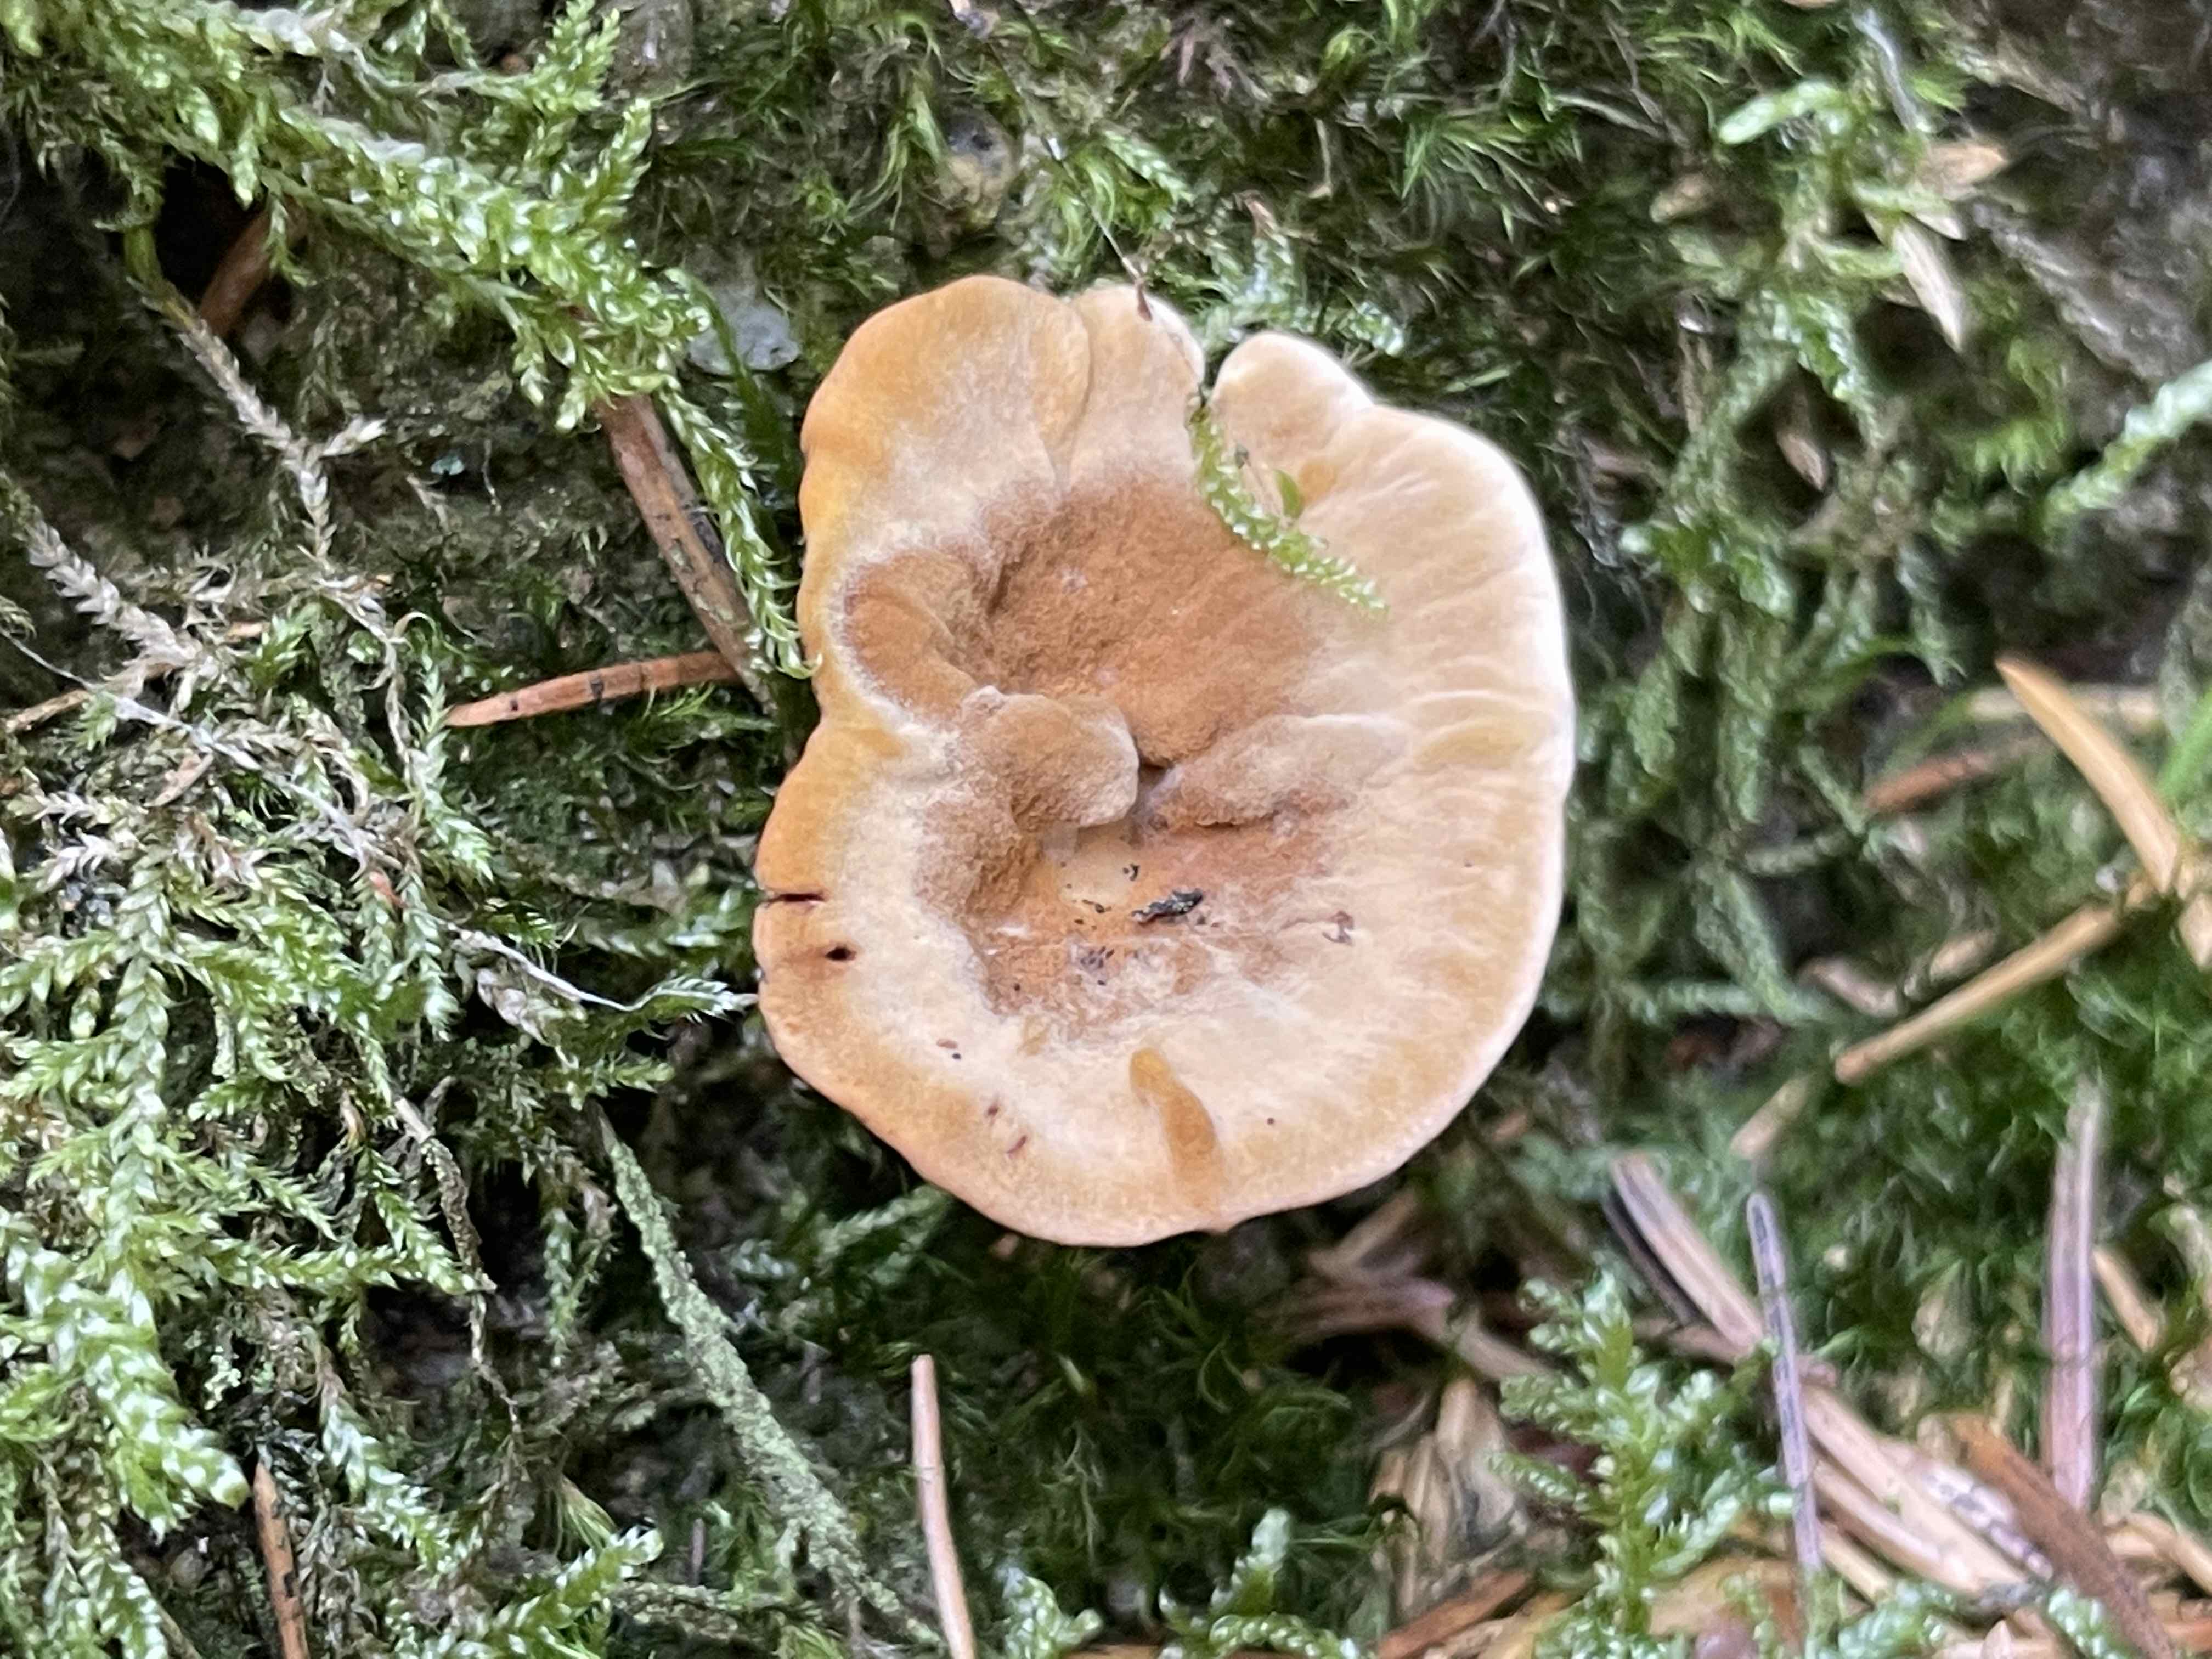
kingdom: Fungi
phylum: Basidiomycota
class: Agaricomycetes
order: Hymenochaetales
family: Hymenochaetaceae
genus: Coltricia
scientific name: Coltricia perennis
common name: almindelig sandporesvamp
